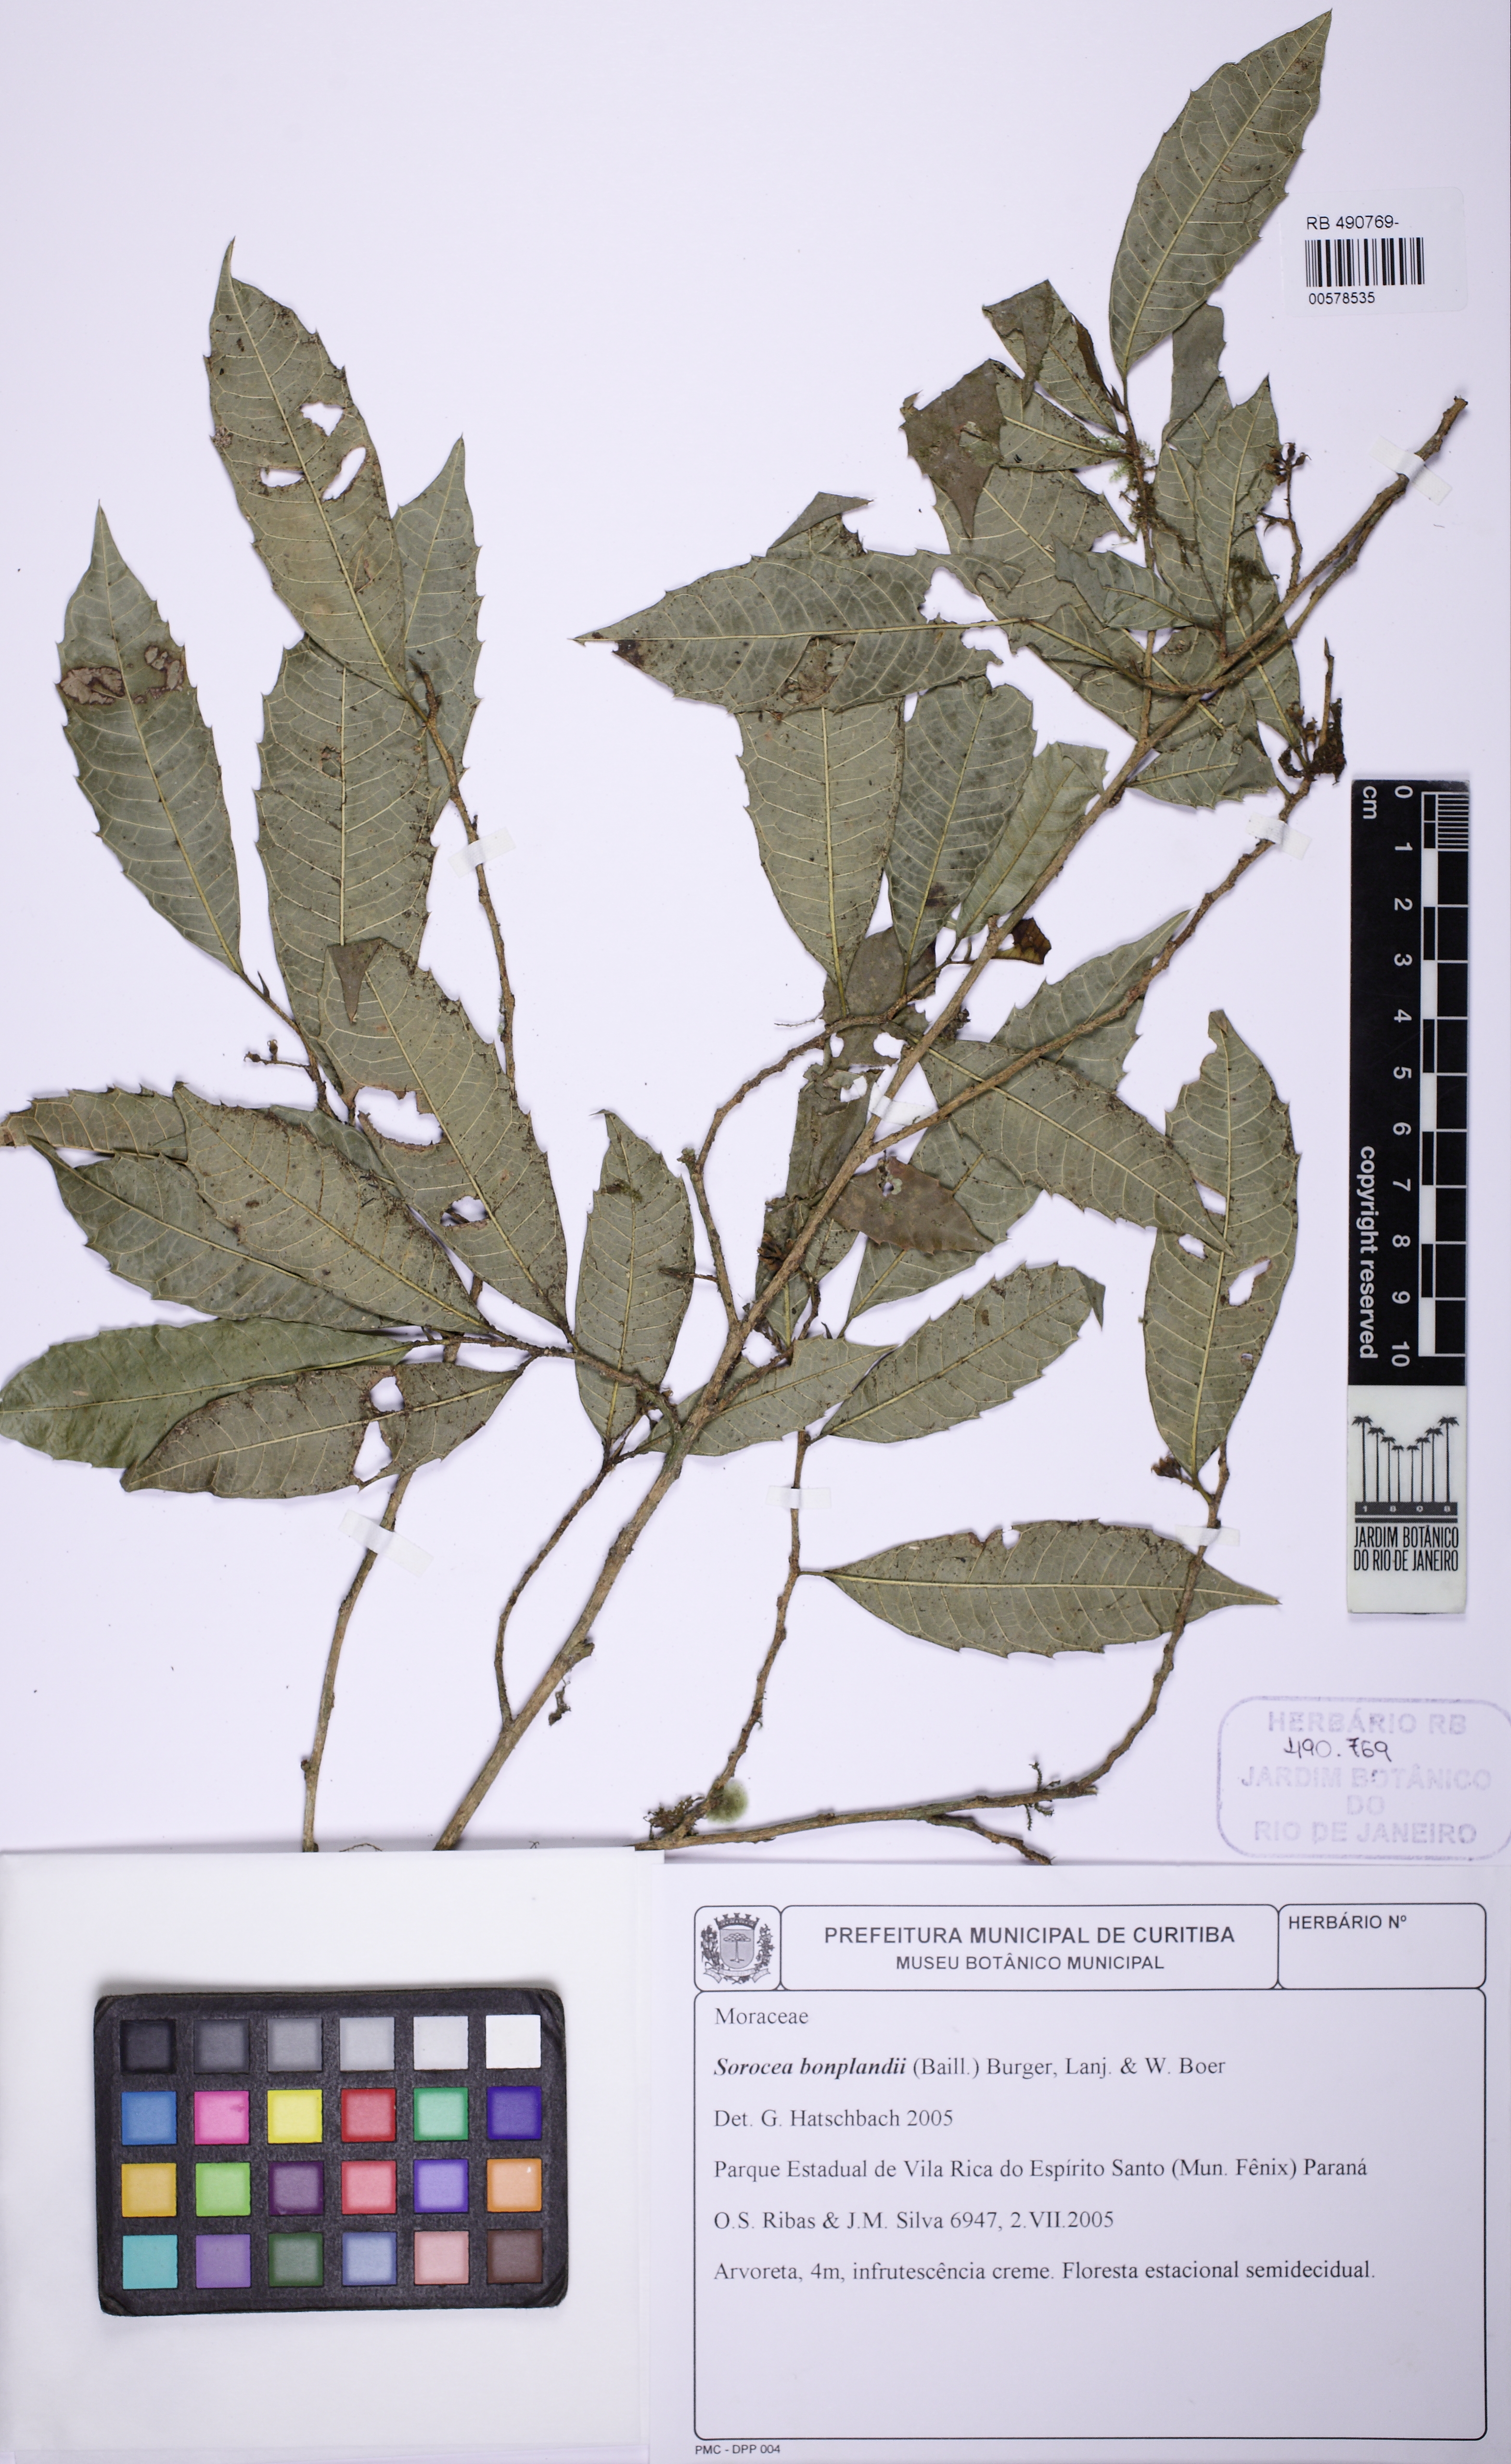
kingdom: Plantae
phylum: Tracheophyta
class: Magnoliopsida
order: Rosales
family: Moraceae
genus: Sorocea
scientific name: Sorocea bonplandii
